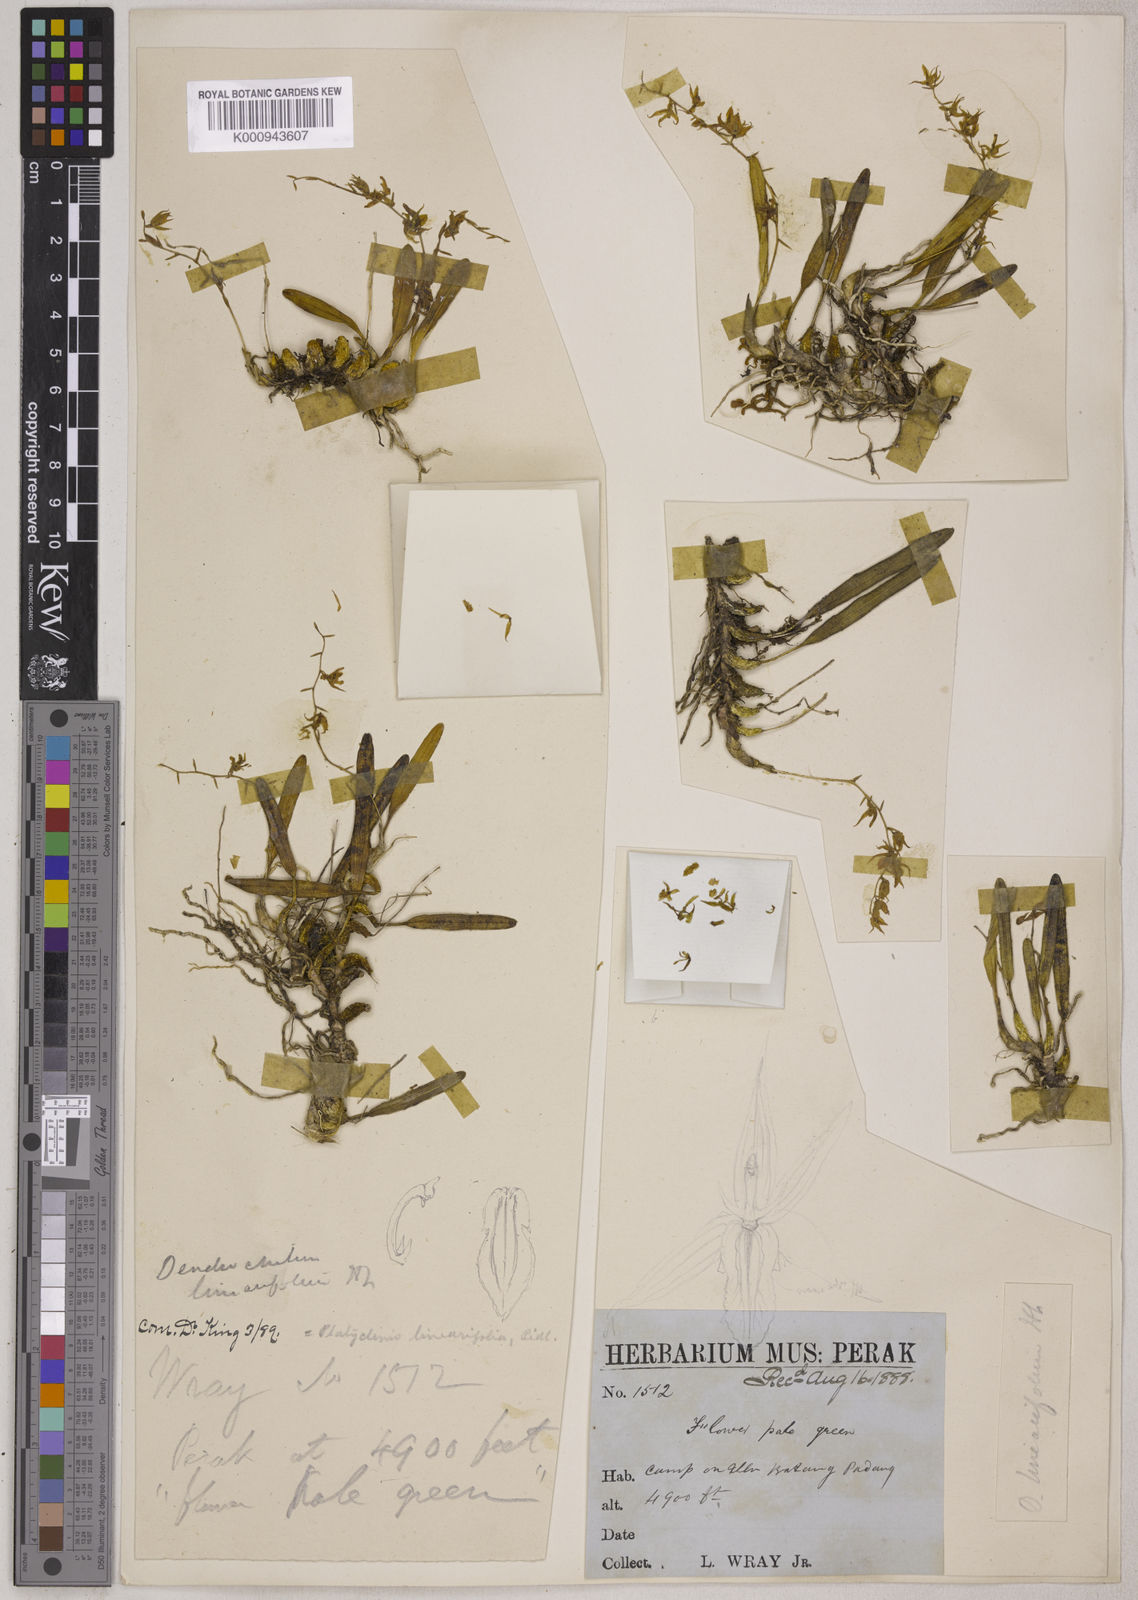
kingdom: Plantae
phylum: Tracheophyta
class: Liliopsida
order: Asparagales
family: Orchidaceae
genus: Coelogyne
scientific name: Coelogyne linearifolia
